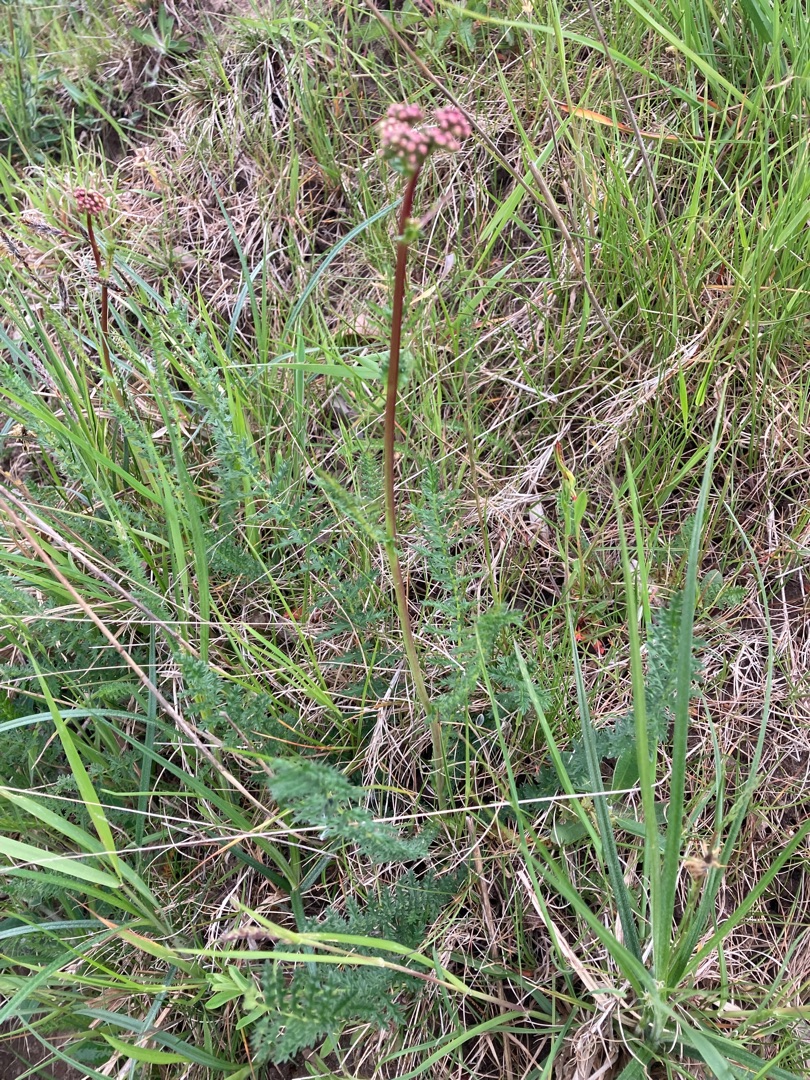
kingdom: Plantae
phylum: Tracheophyta
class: Magnoliopsida
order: Rosales
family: Rosaceae
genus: Filipendula
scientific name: Filipendula vulgaris
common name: Knoldet mjødurt
